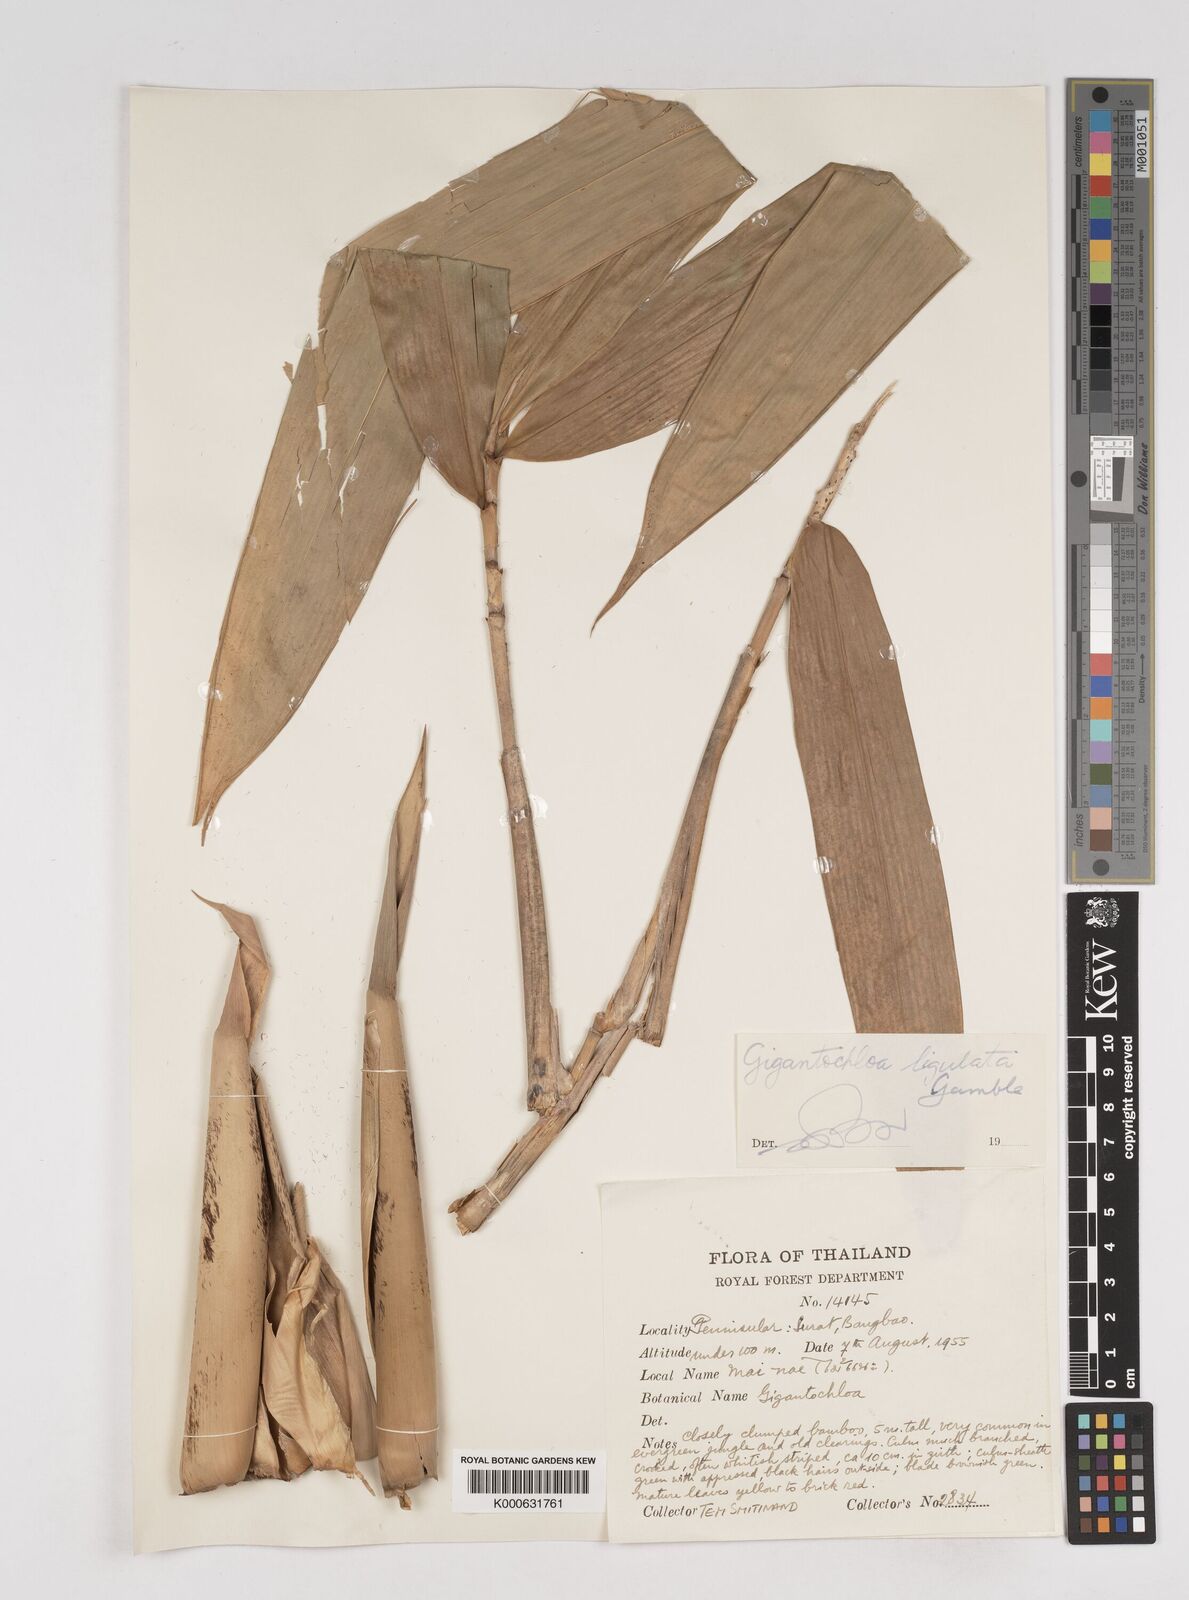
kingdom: Plantae
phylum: Tracheophyta
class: Liliopsida
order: Poales
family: Poaceae
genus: Gigantochloa
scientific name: Gigantochloa ligulata
